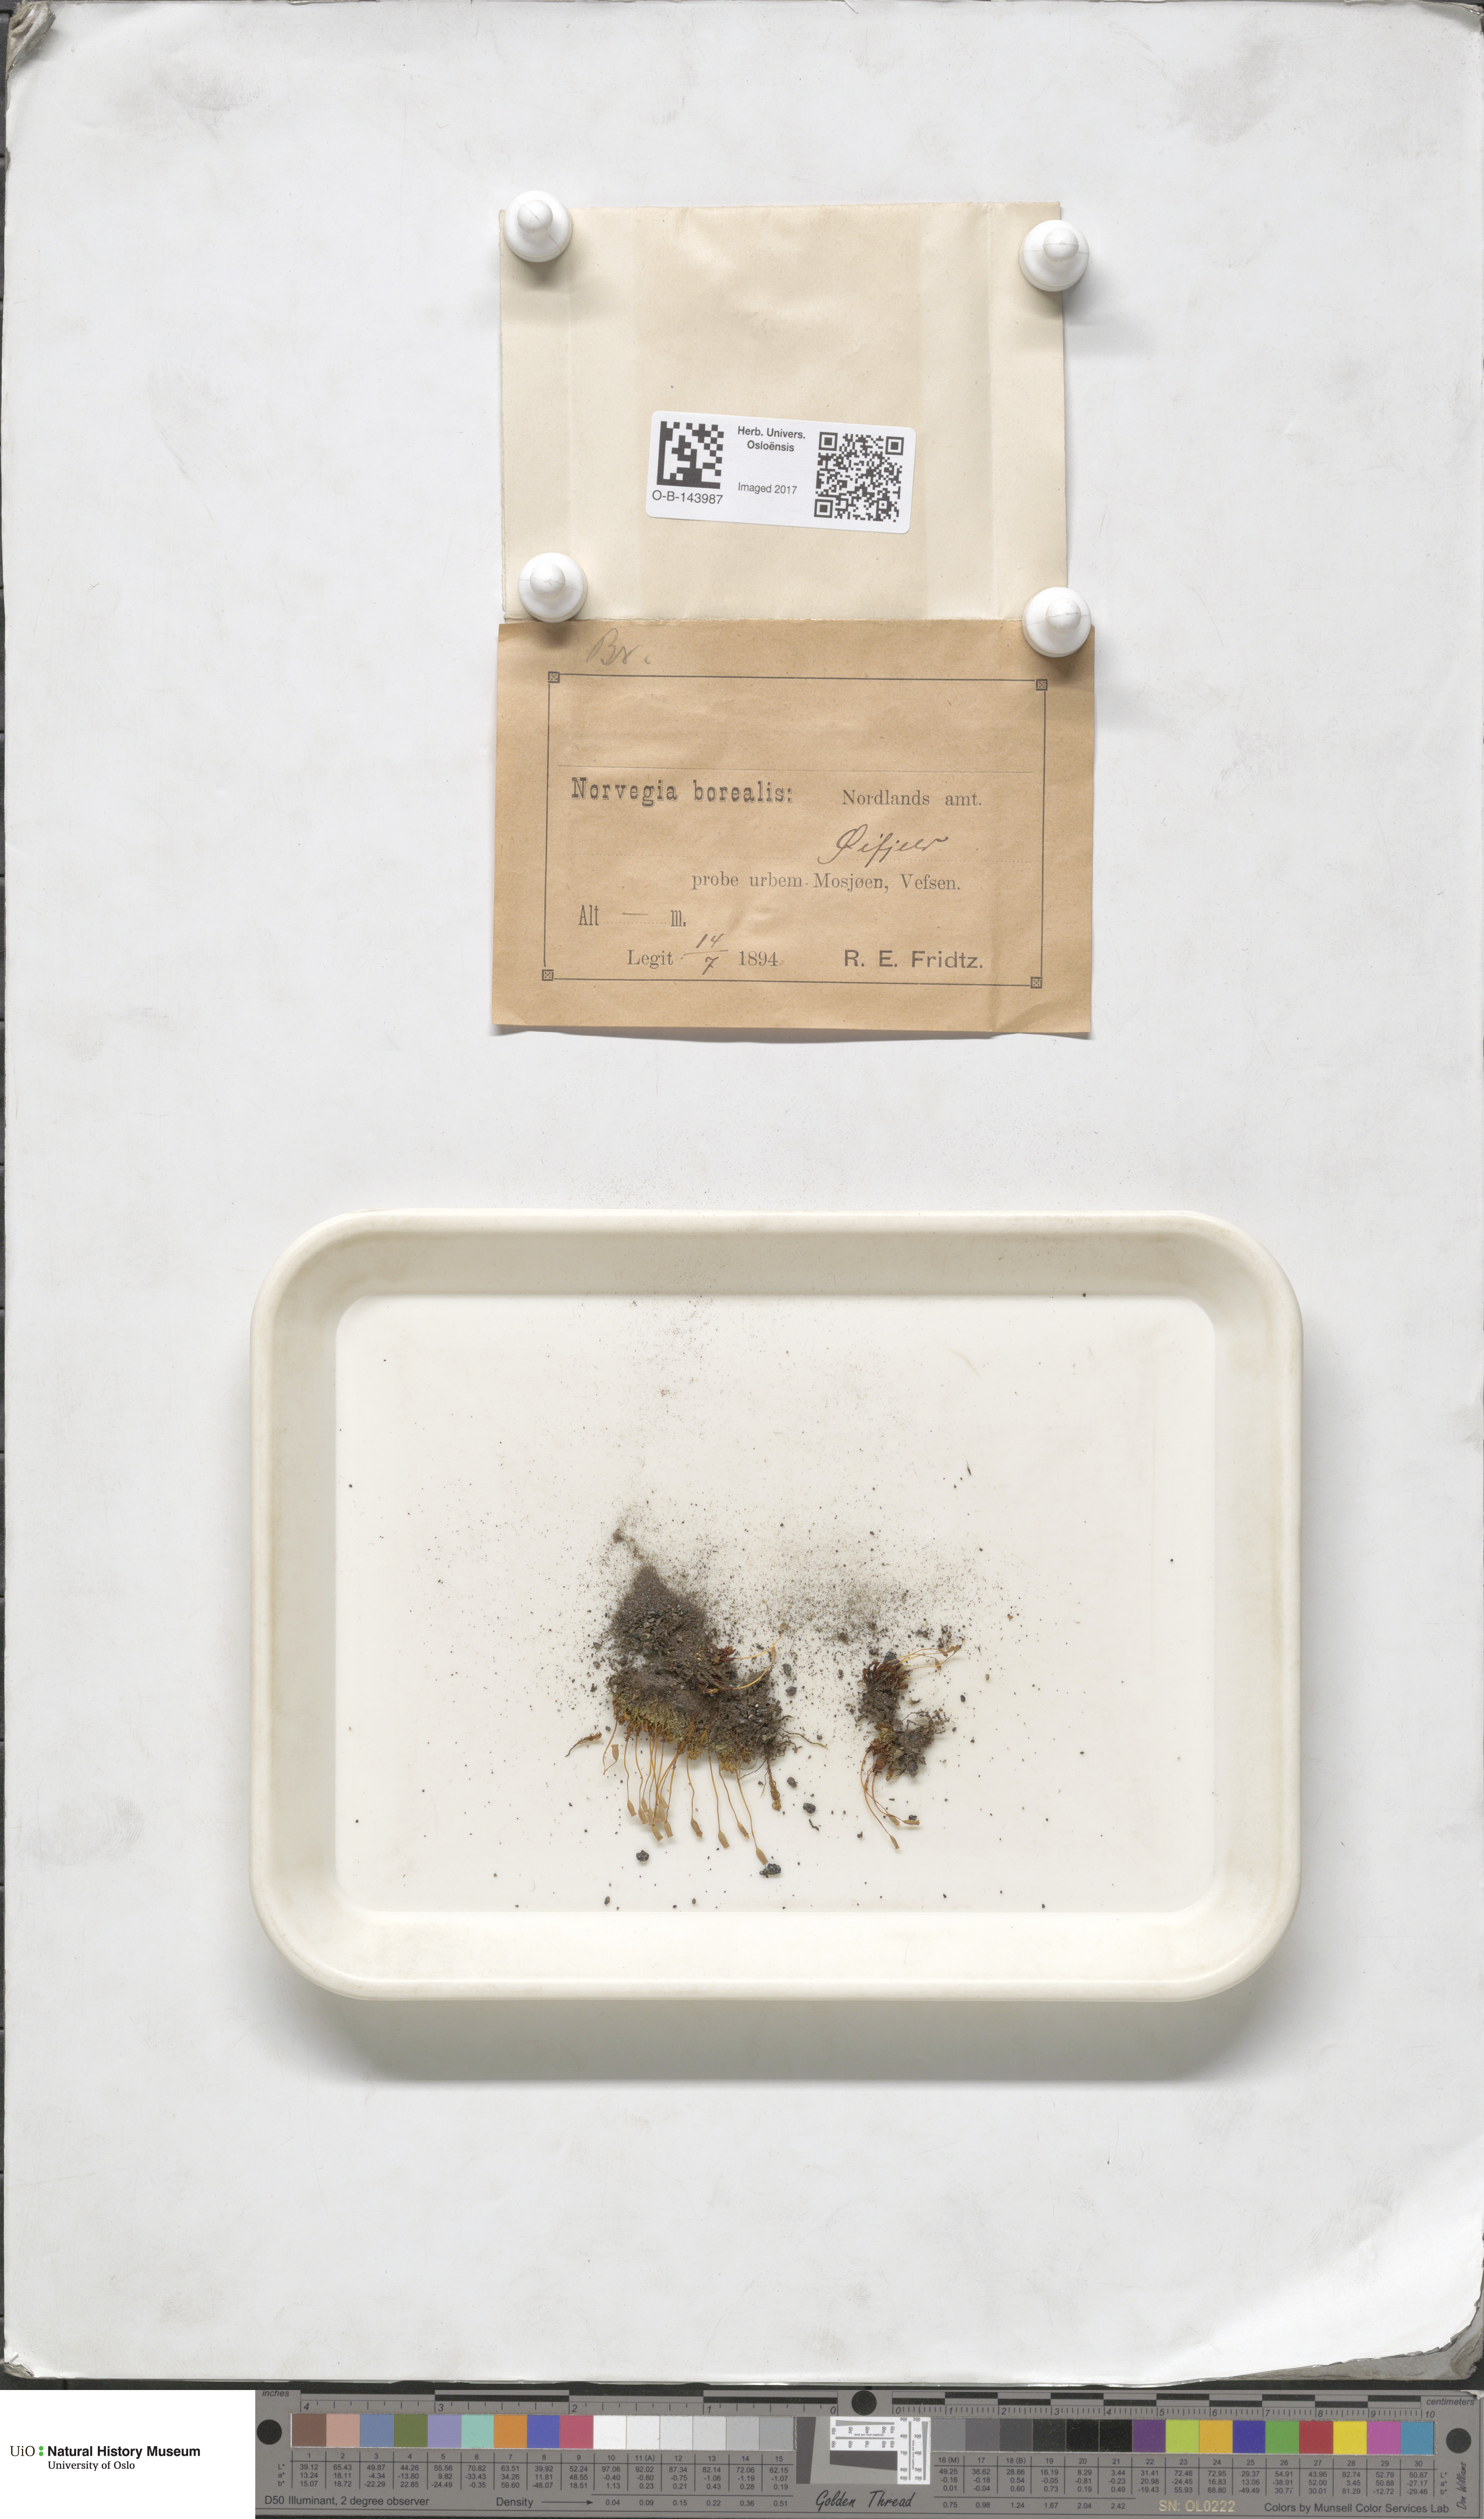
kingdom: Plantae
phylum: Bryophyta
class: Bryopsida
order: Bryales
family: Bryaceae
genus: Bryum
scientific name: Bryum
